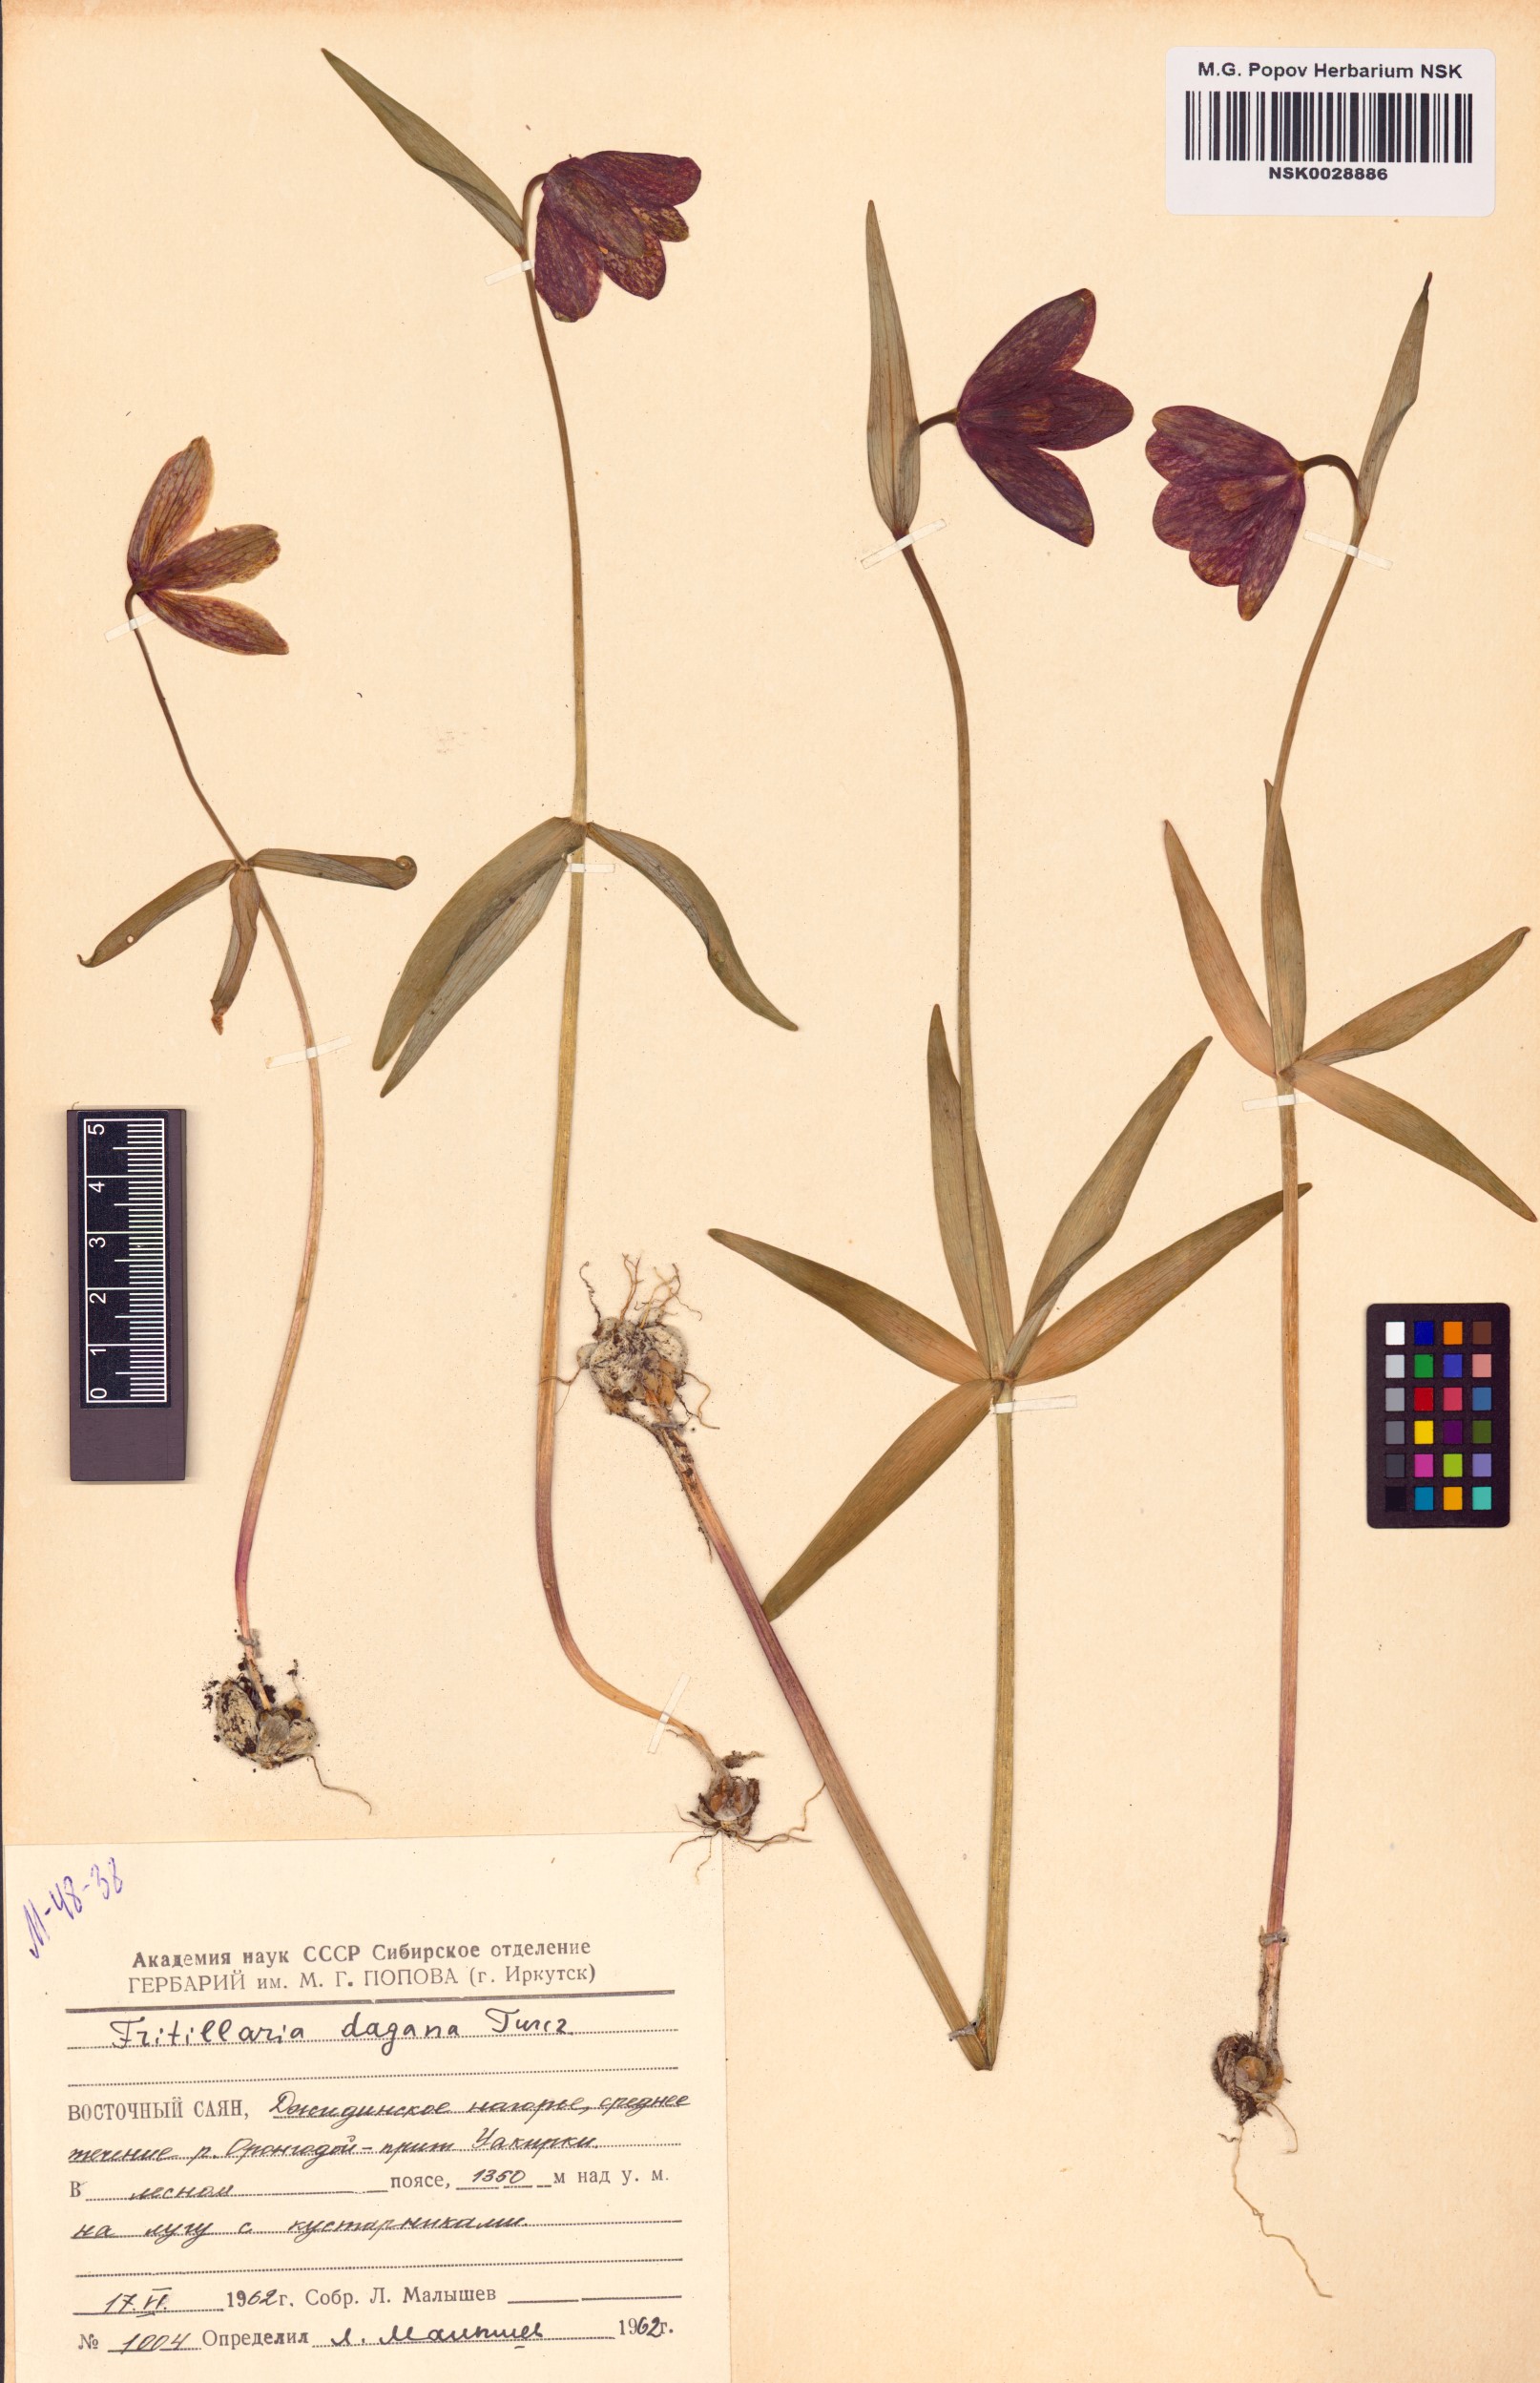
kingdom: Plantae
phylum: Tracheophyta
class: Liliopsida
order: Liliales
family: Liliaceae
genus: Fritillaria
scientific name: Fritillaria dagana
